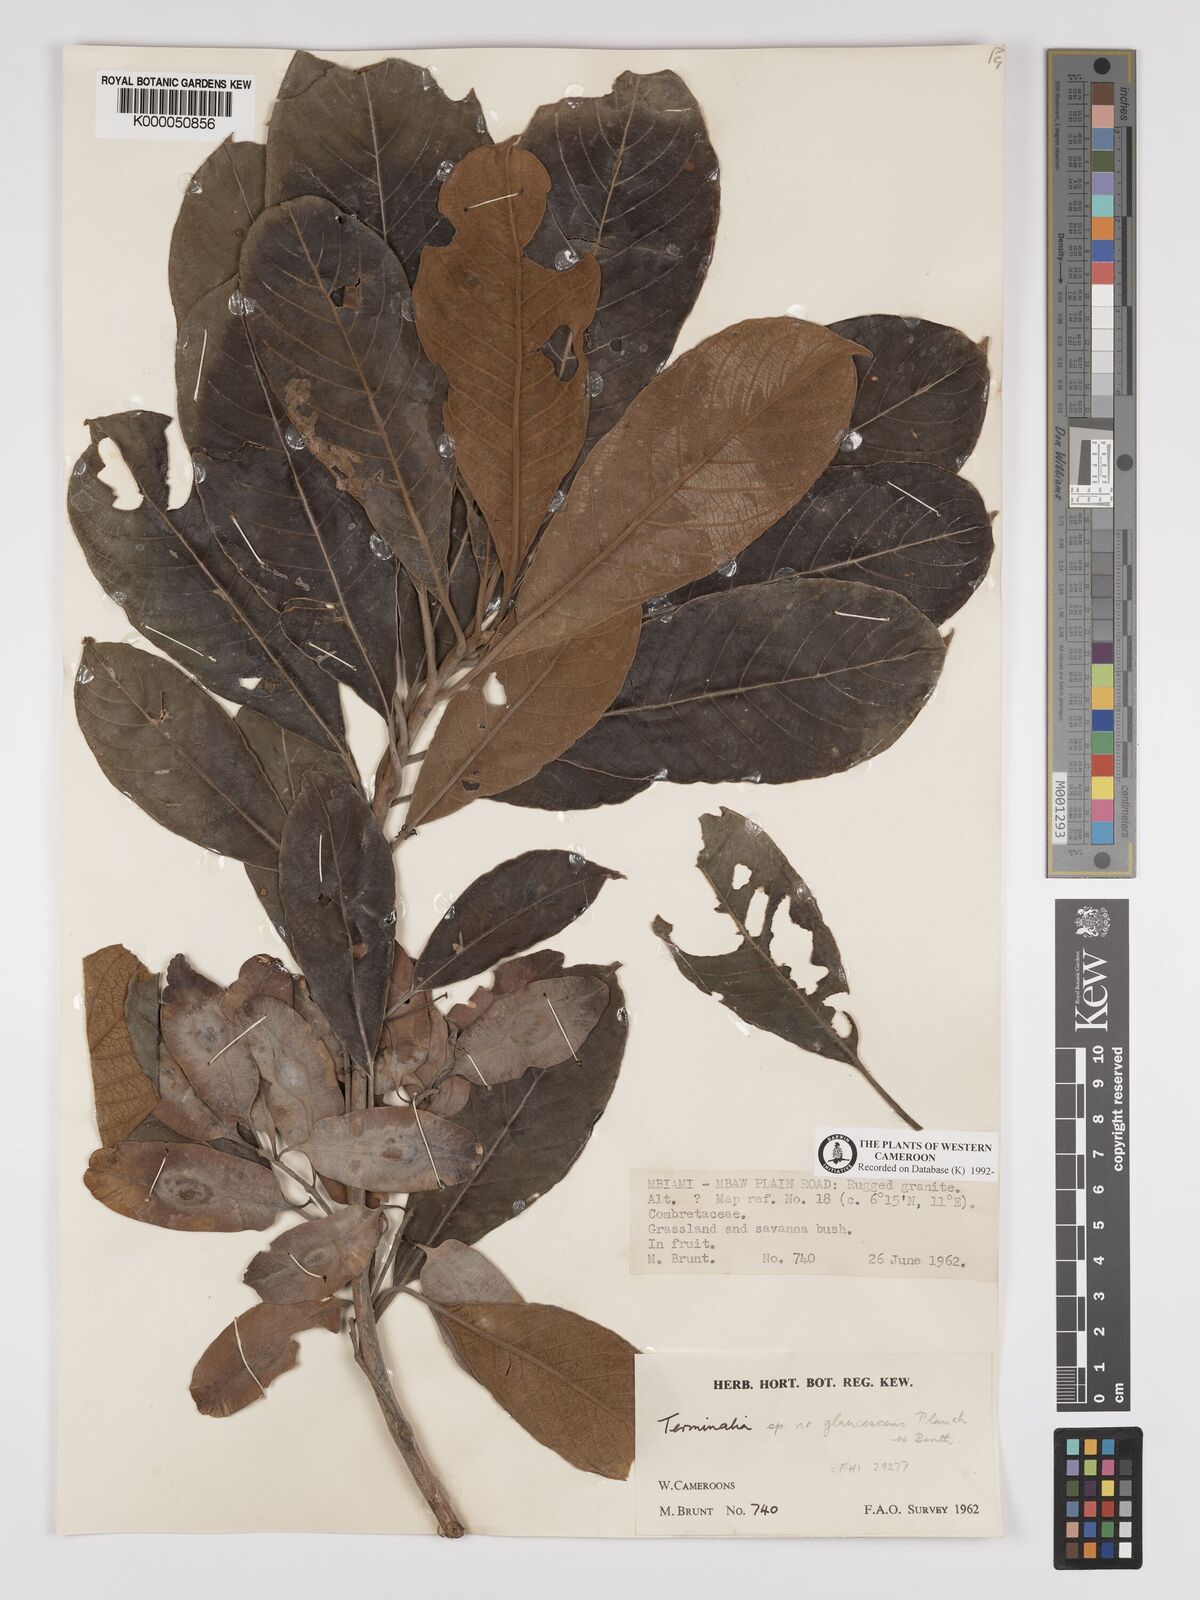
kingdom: Plantae
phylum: Tracheophyta
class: Magnoliopsida
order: Myrtales
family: Combretaceae
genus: Terminalia
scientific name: Terminalia schimperiana
